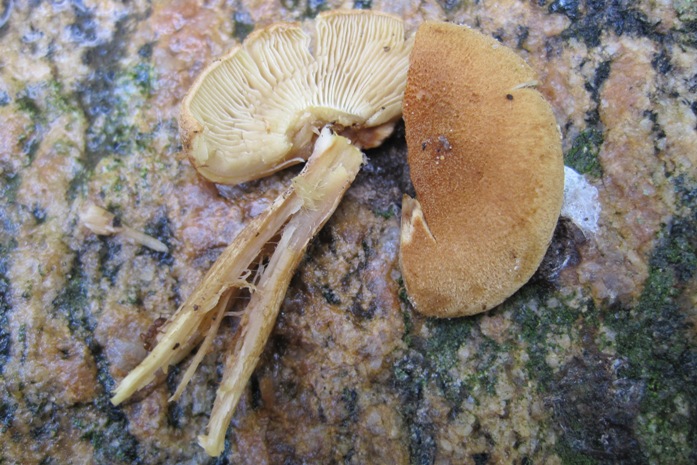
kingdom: Fungi
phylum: Basidiomycota
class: Agaricomycetes
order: Agaricales
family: Inocybaceae
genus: Mallocybe
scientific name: Mallocybe agardhii
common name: Agardhs trævlhat
